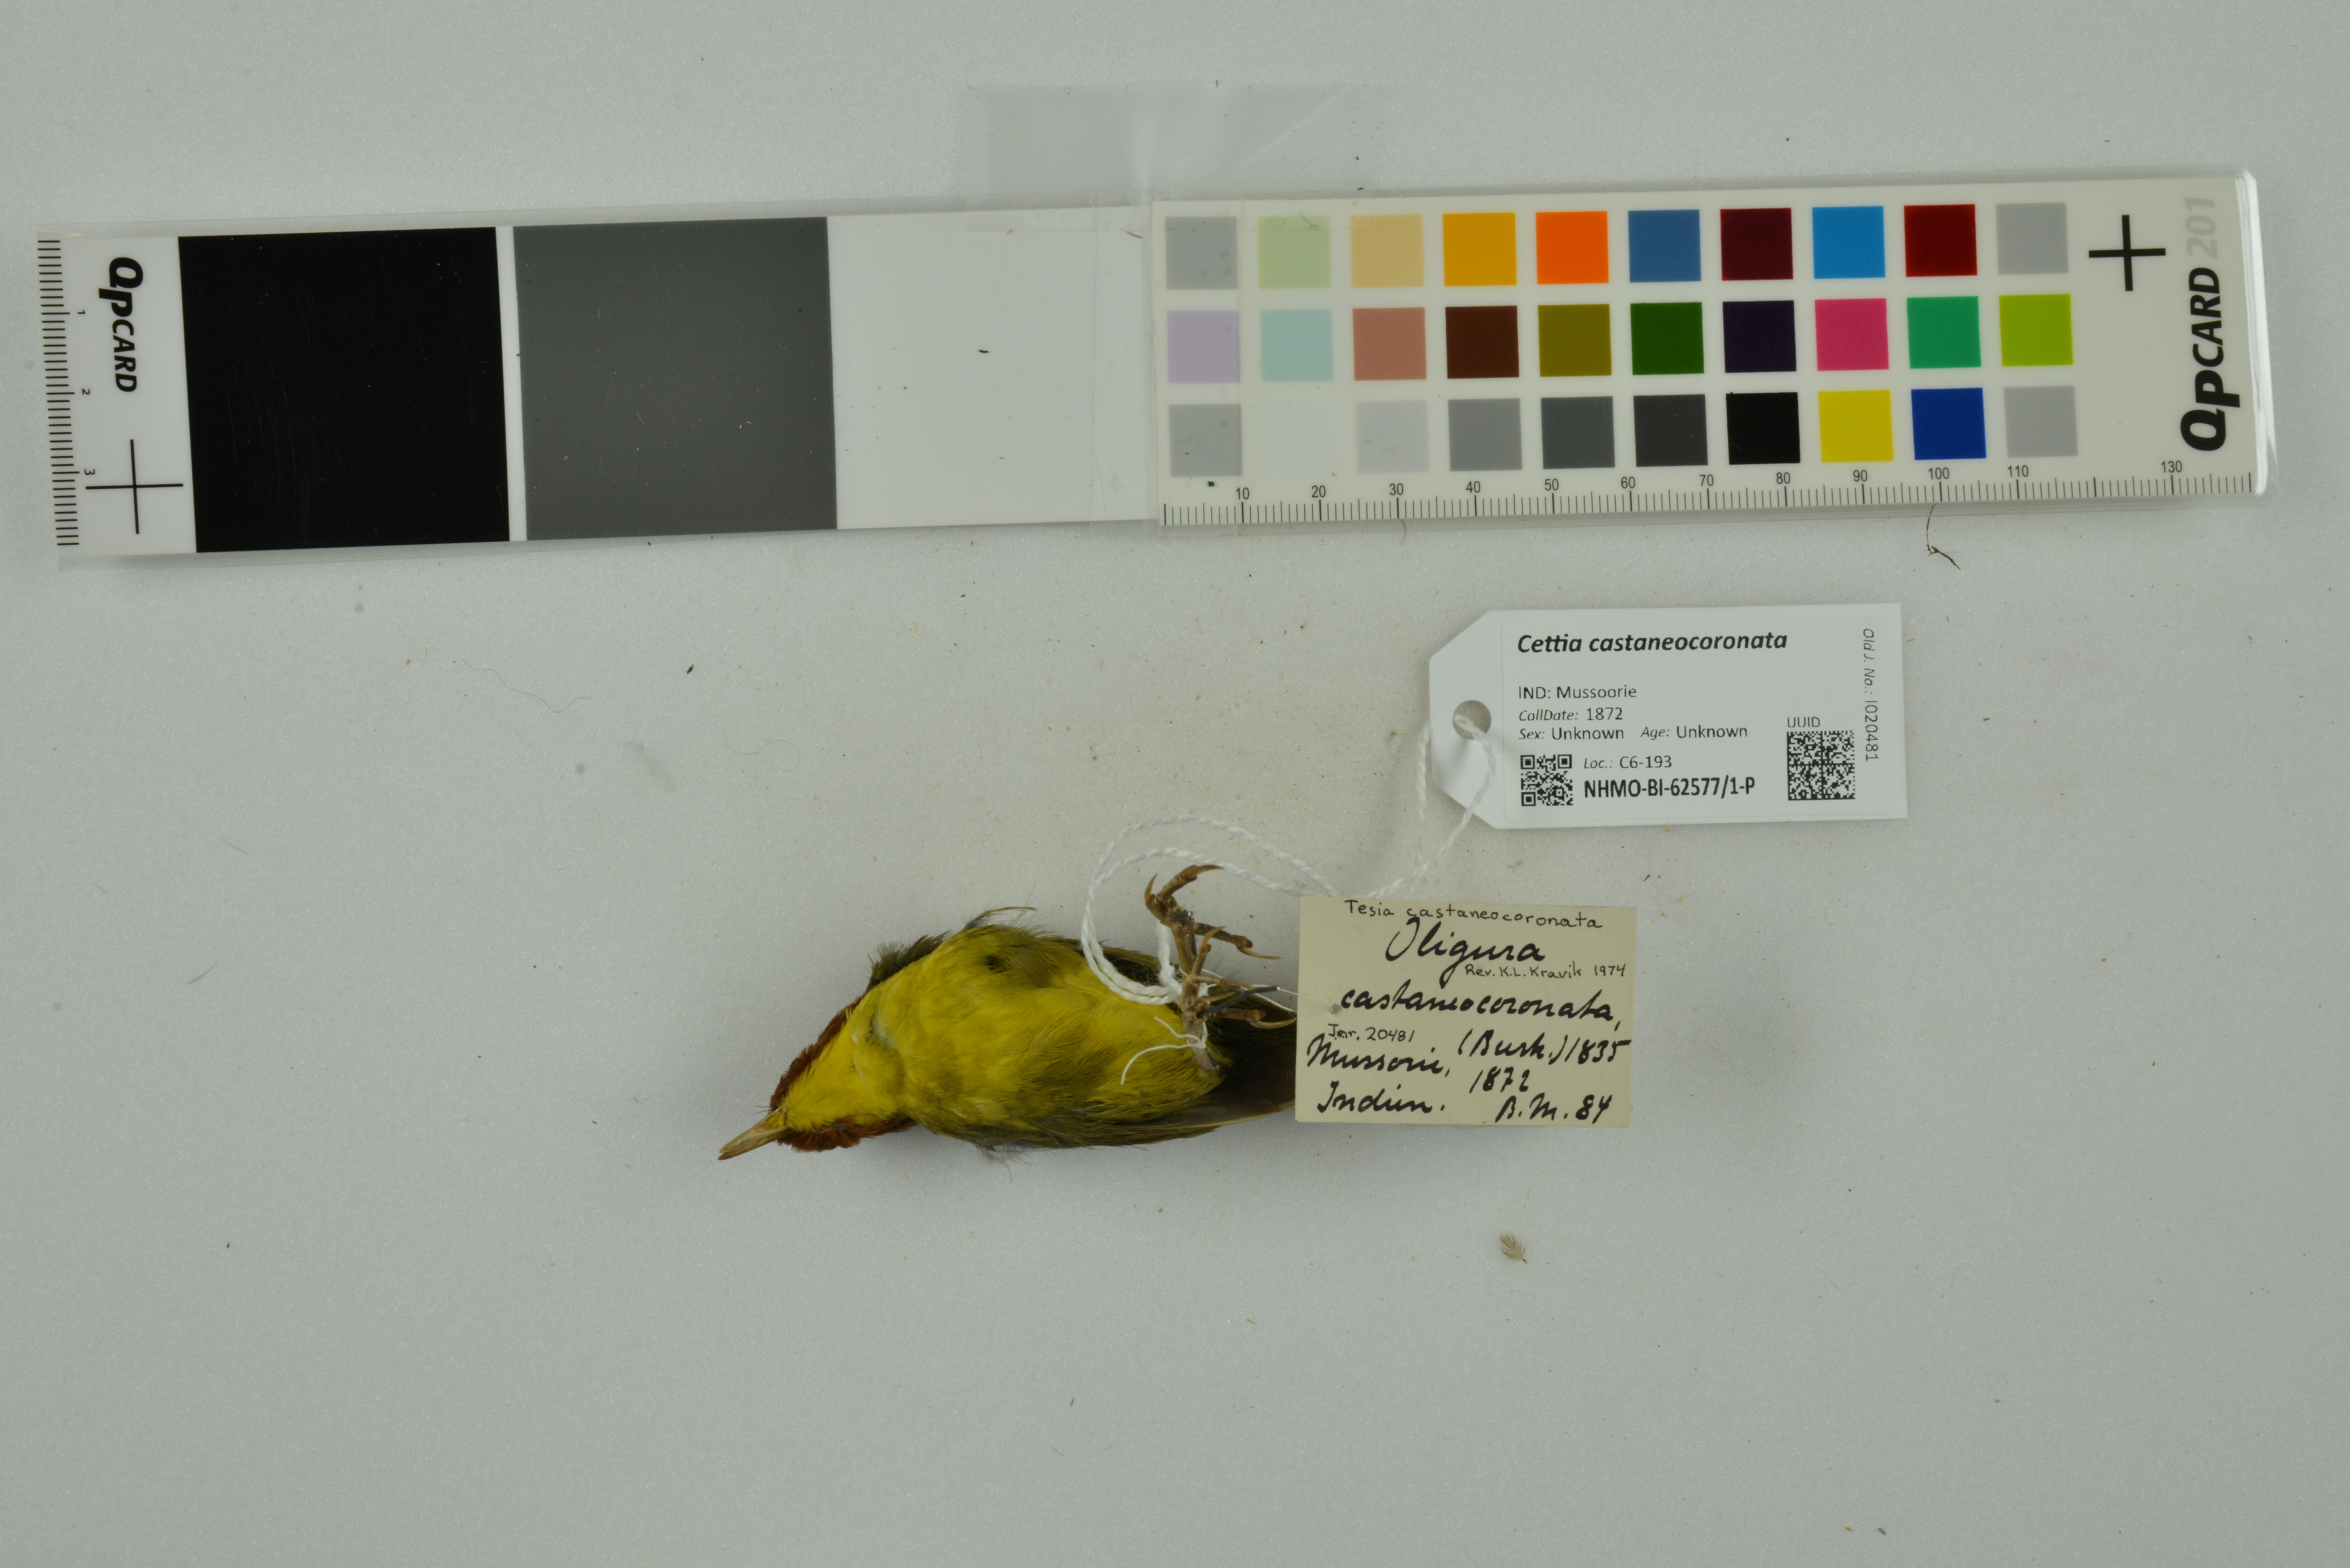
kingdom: Animalia
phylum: Chordata
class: Aves
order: Passeriformes
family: Cettiidae
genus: Cettia
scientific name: Cettia castaneocoronata
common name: Chestnut-headed tesia
